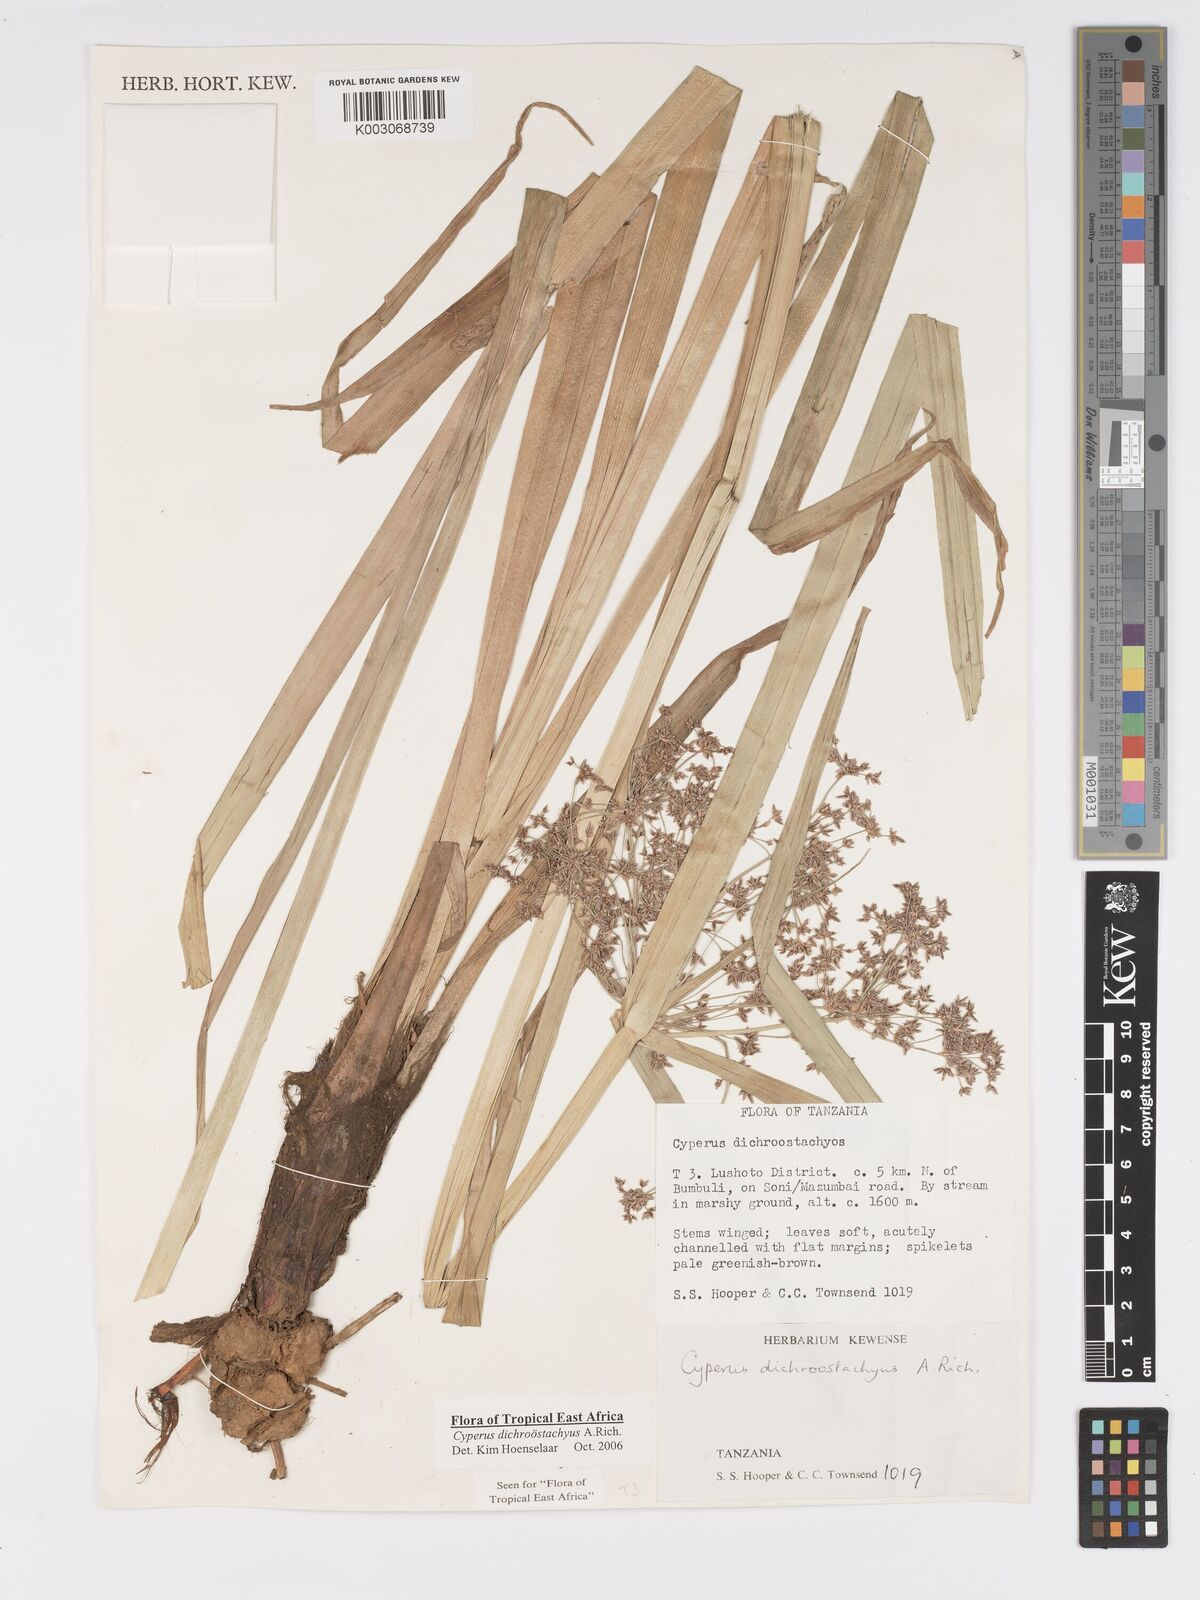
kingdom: Plantae
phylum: Tracheophyta
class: Liliopsida
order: Poales
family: Cyperaceae
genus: Cyperus
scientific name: Cyperus dichrostachyus
